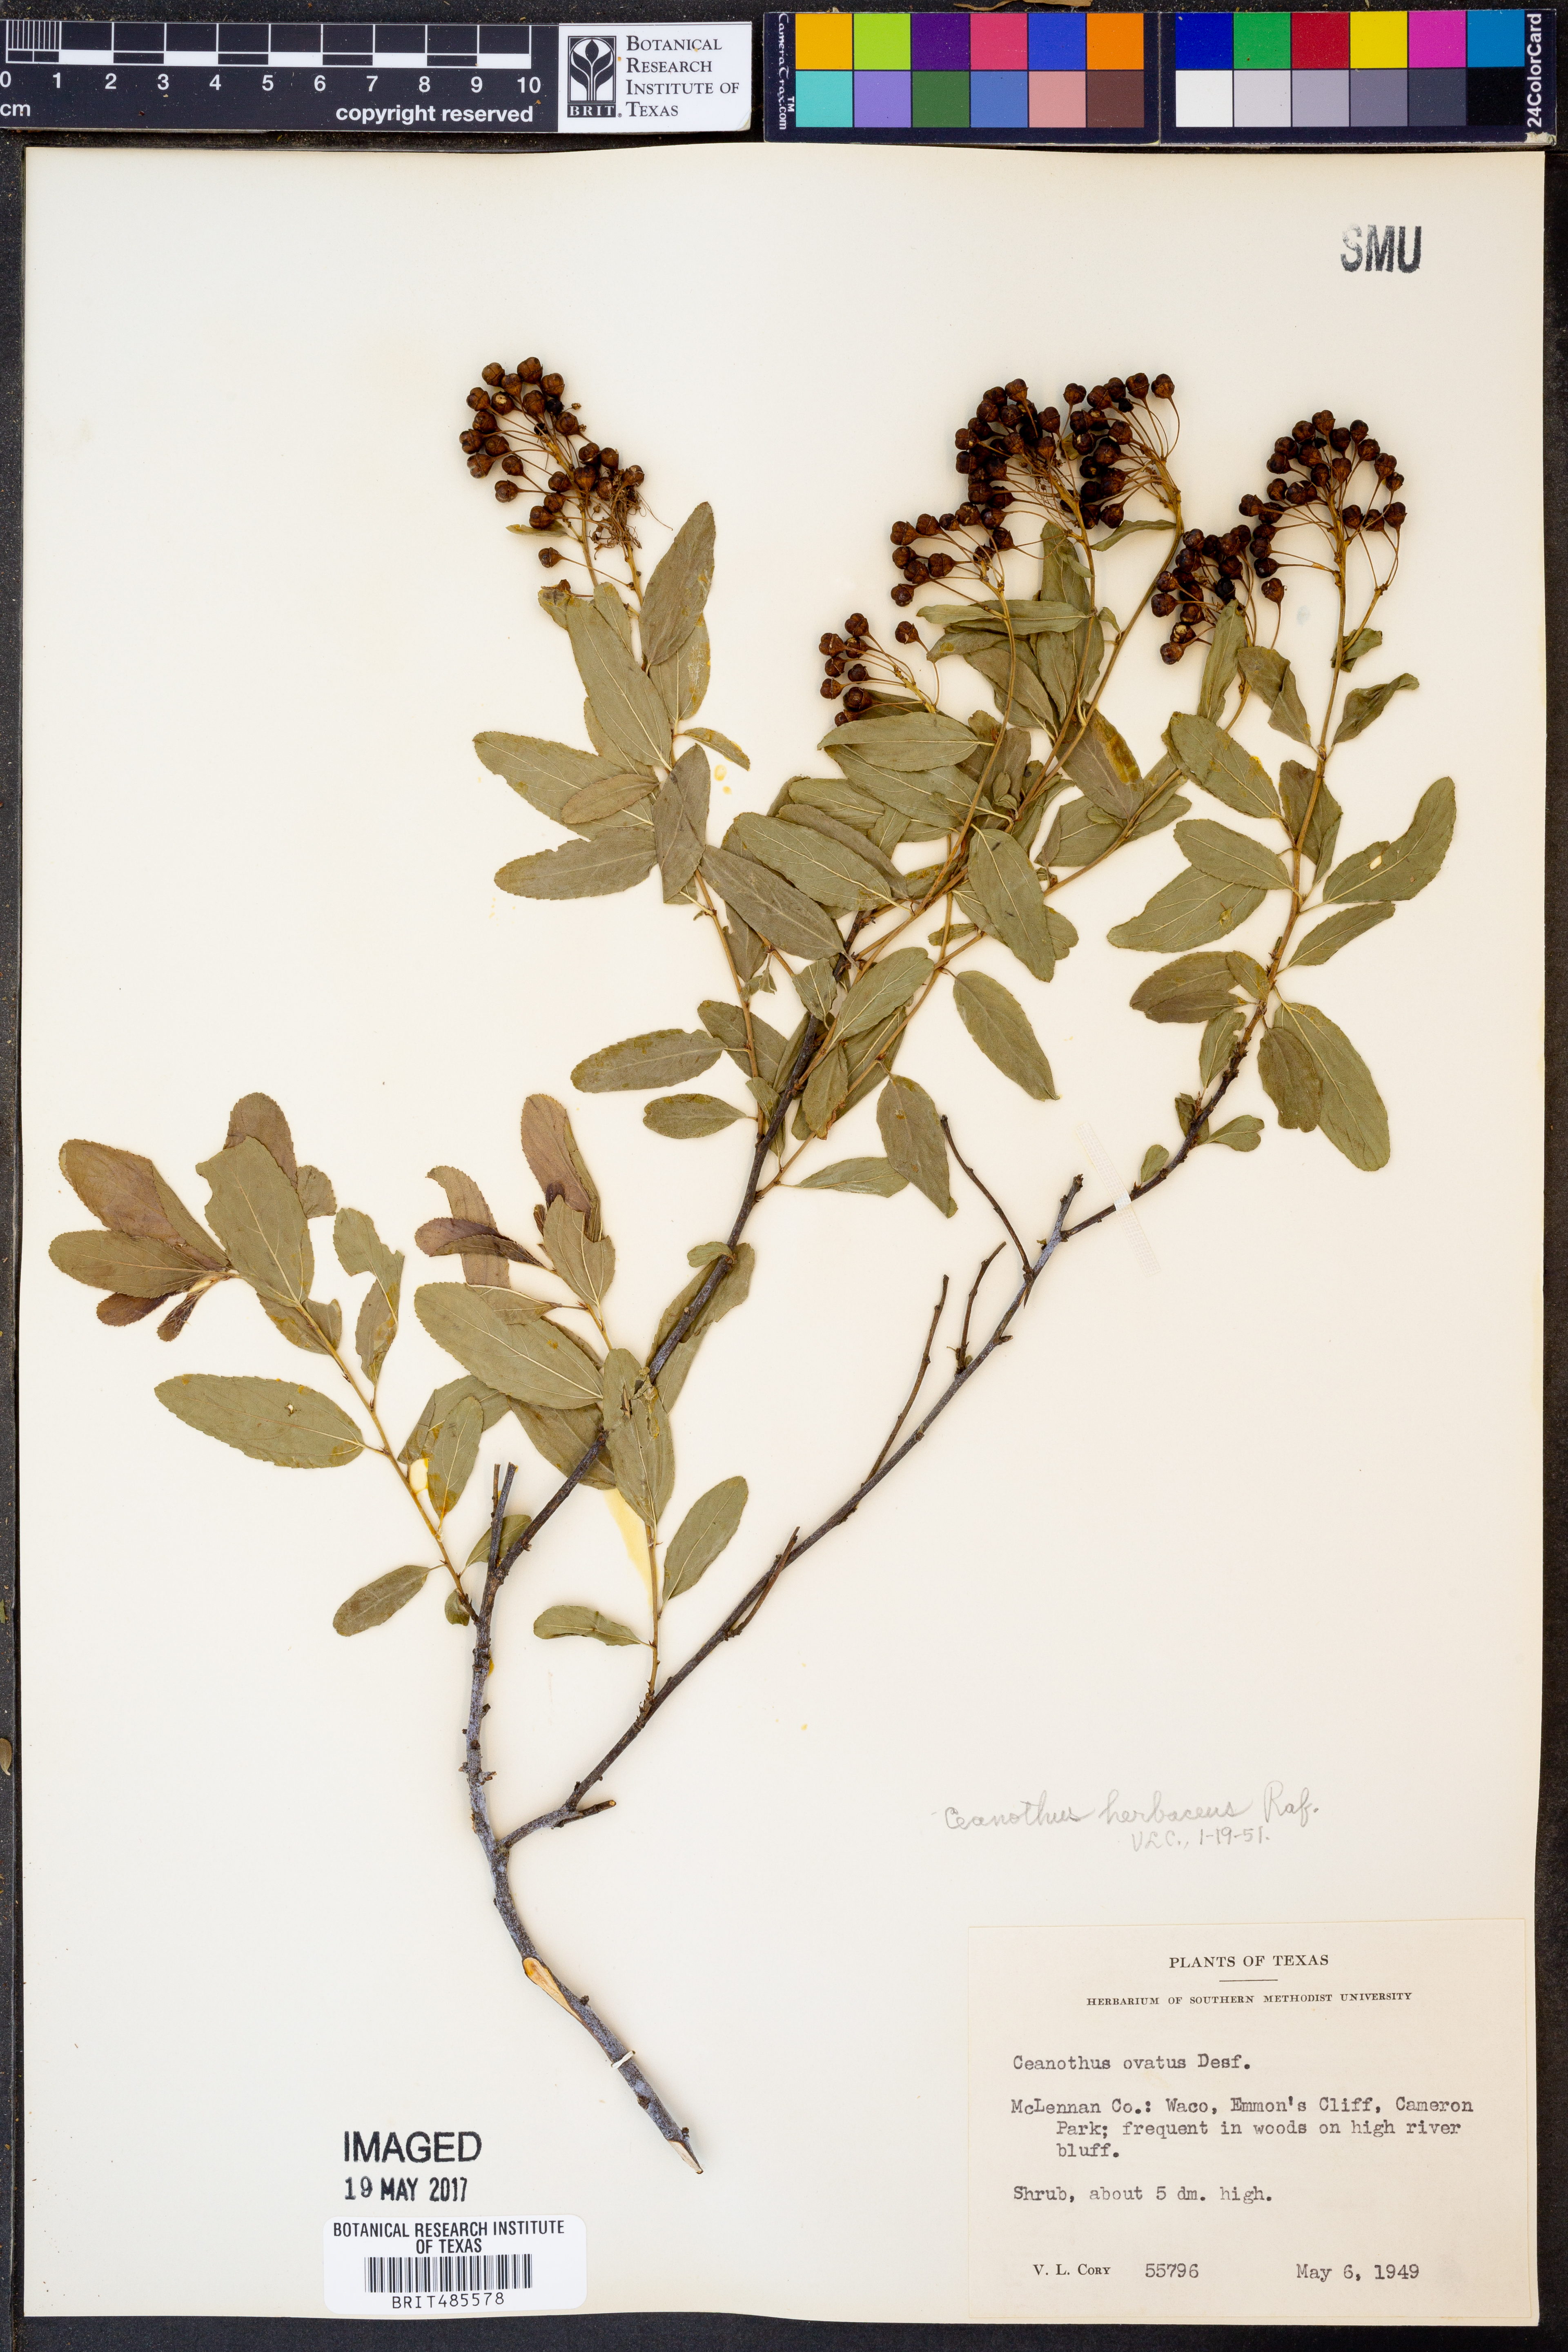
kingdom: Plantae
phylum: Tracheophyta
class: Magnoliopsida
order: Rosales
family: Rhamnaceae
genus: Ceanothus
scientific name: Ceanothus herbaceus
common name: Inland ceanothus
